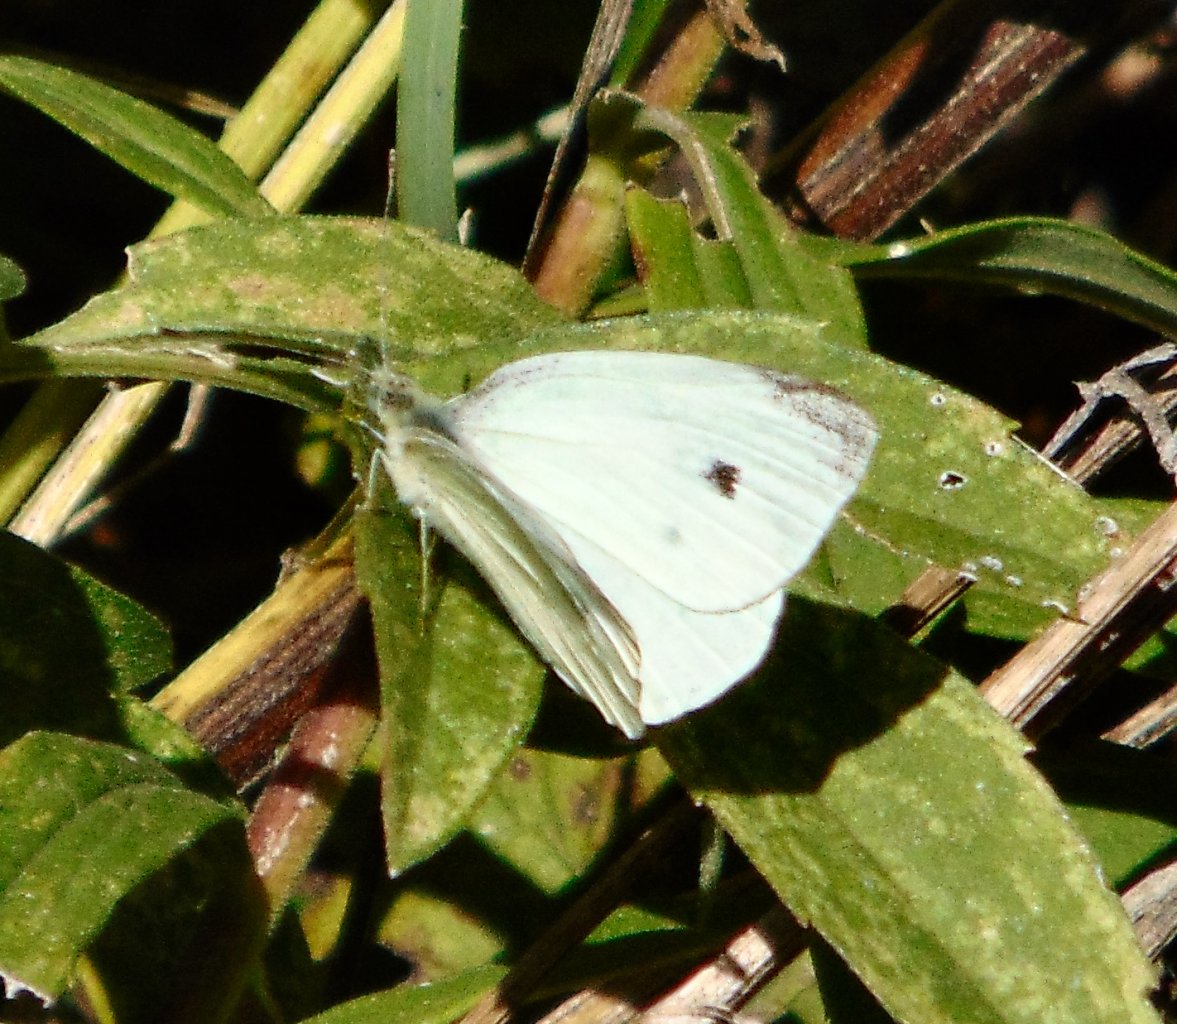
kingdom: Animalia
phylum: Arthropoda
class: Insecta
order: Lepidoptera
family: Pieridae
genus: Pieris
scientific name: Pieris rapae
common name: Cabbage White
